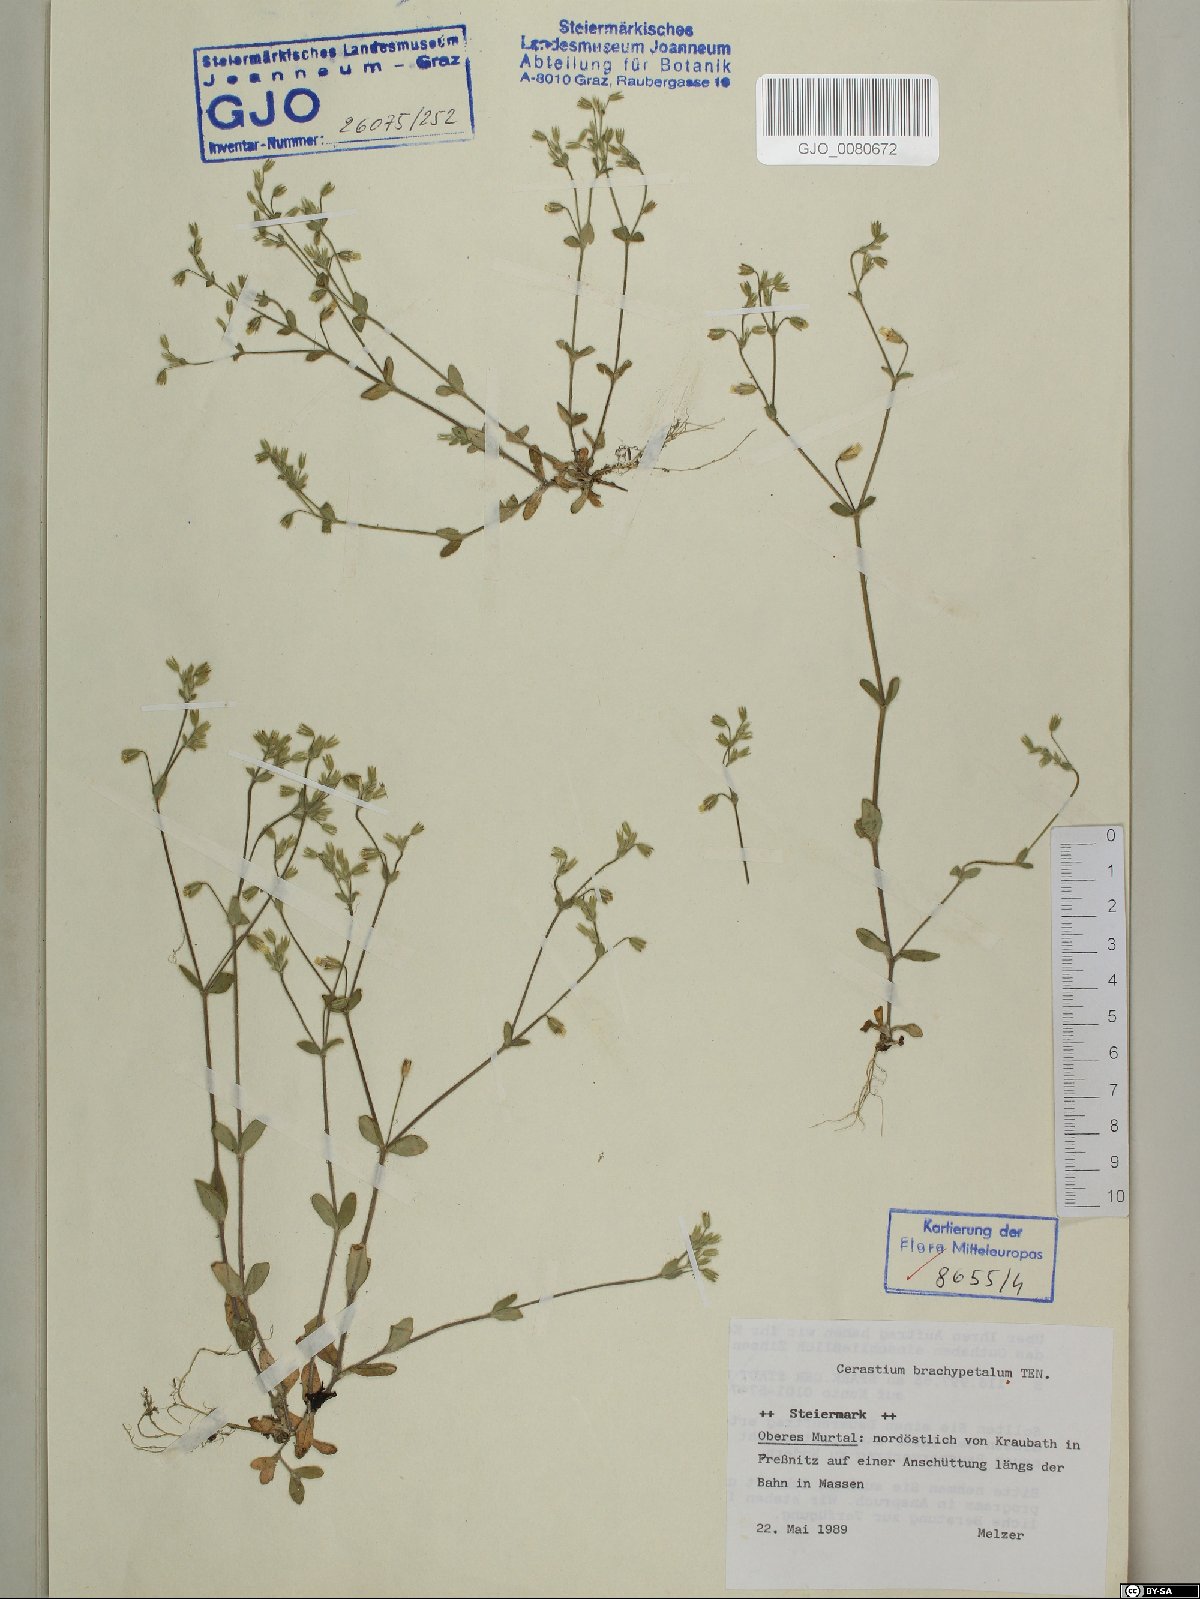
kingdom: Plantae
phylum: Tracheophyta
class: Magnoliopsida
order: Caryophyllales
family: Caryophyllaceae
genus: Cerastium
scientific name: Cerastium brachypetalum
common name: Grey mouse-ear
